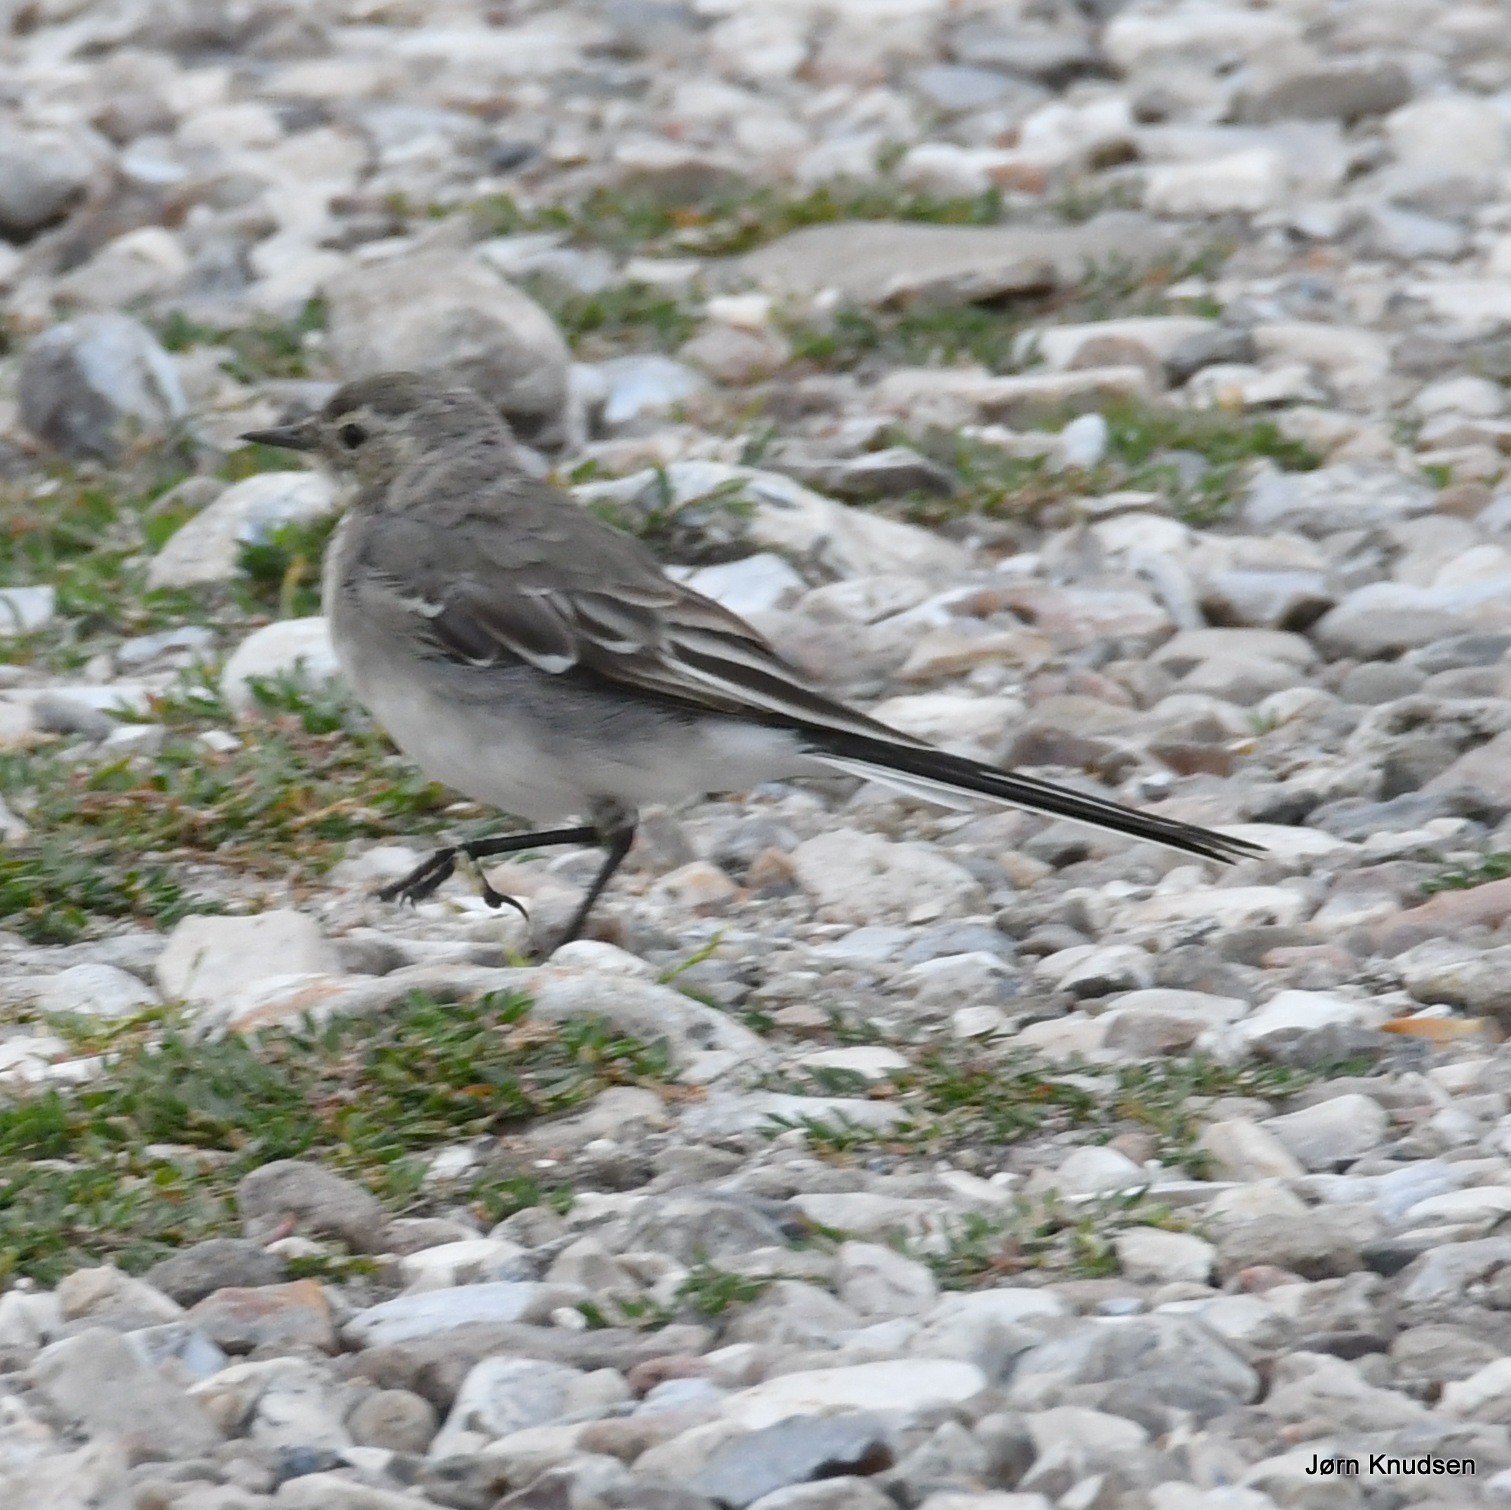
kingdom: Animalia
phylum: Chordata
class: Aves
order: Passeriformes
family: Motacillidae
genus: Motacilla
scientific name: Motacilla alba
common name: Hvid vipstjert
